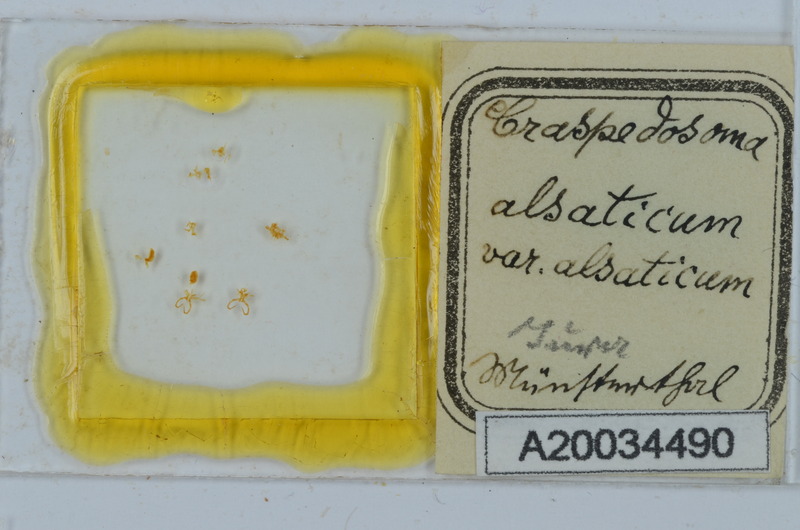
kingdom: Animalia
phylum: Arthropoda
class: Diplopoda
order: Chordeumatida
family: Craspedosomatidae
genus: Craspedosoma
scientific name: Craspedosoma rawlinsii
